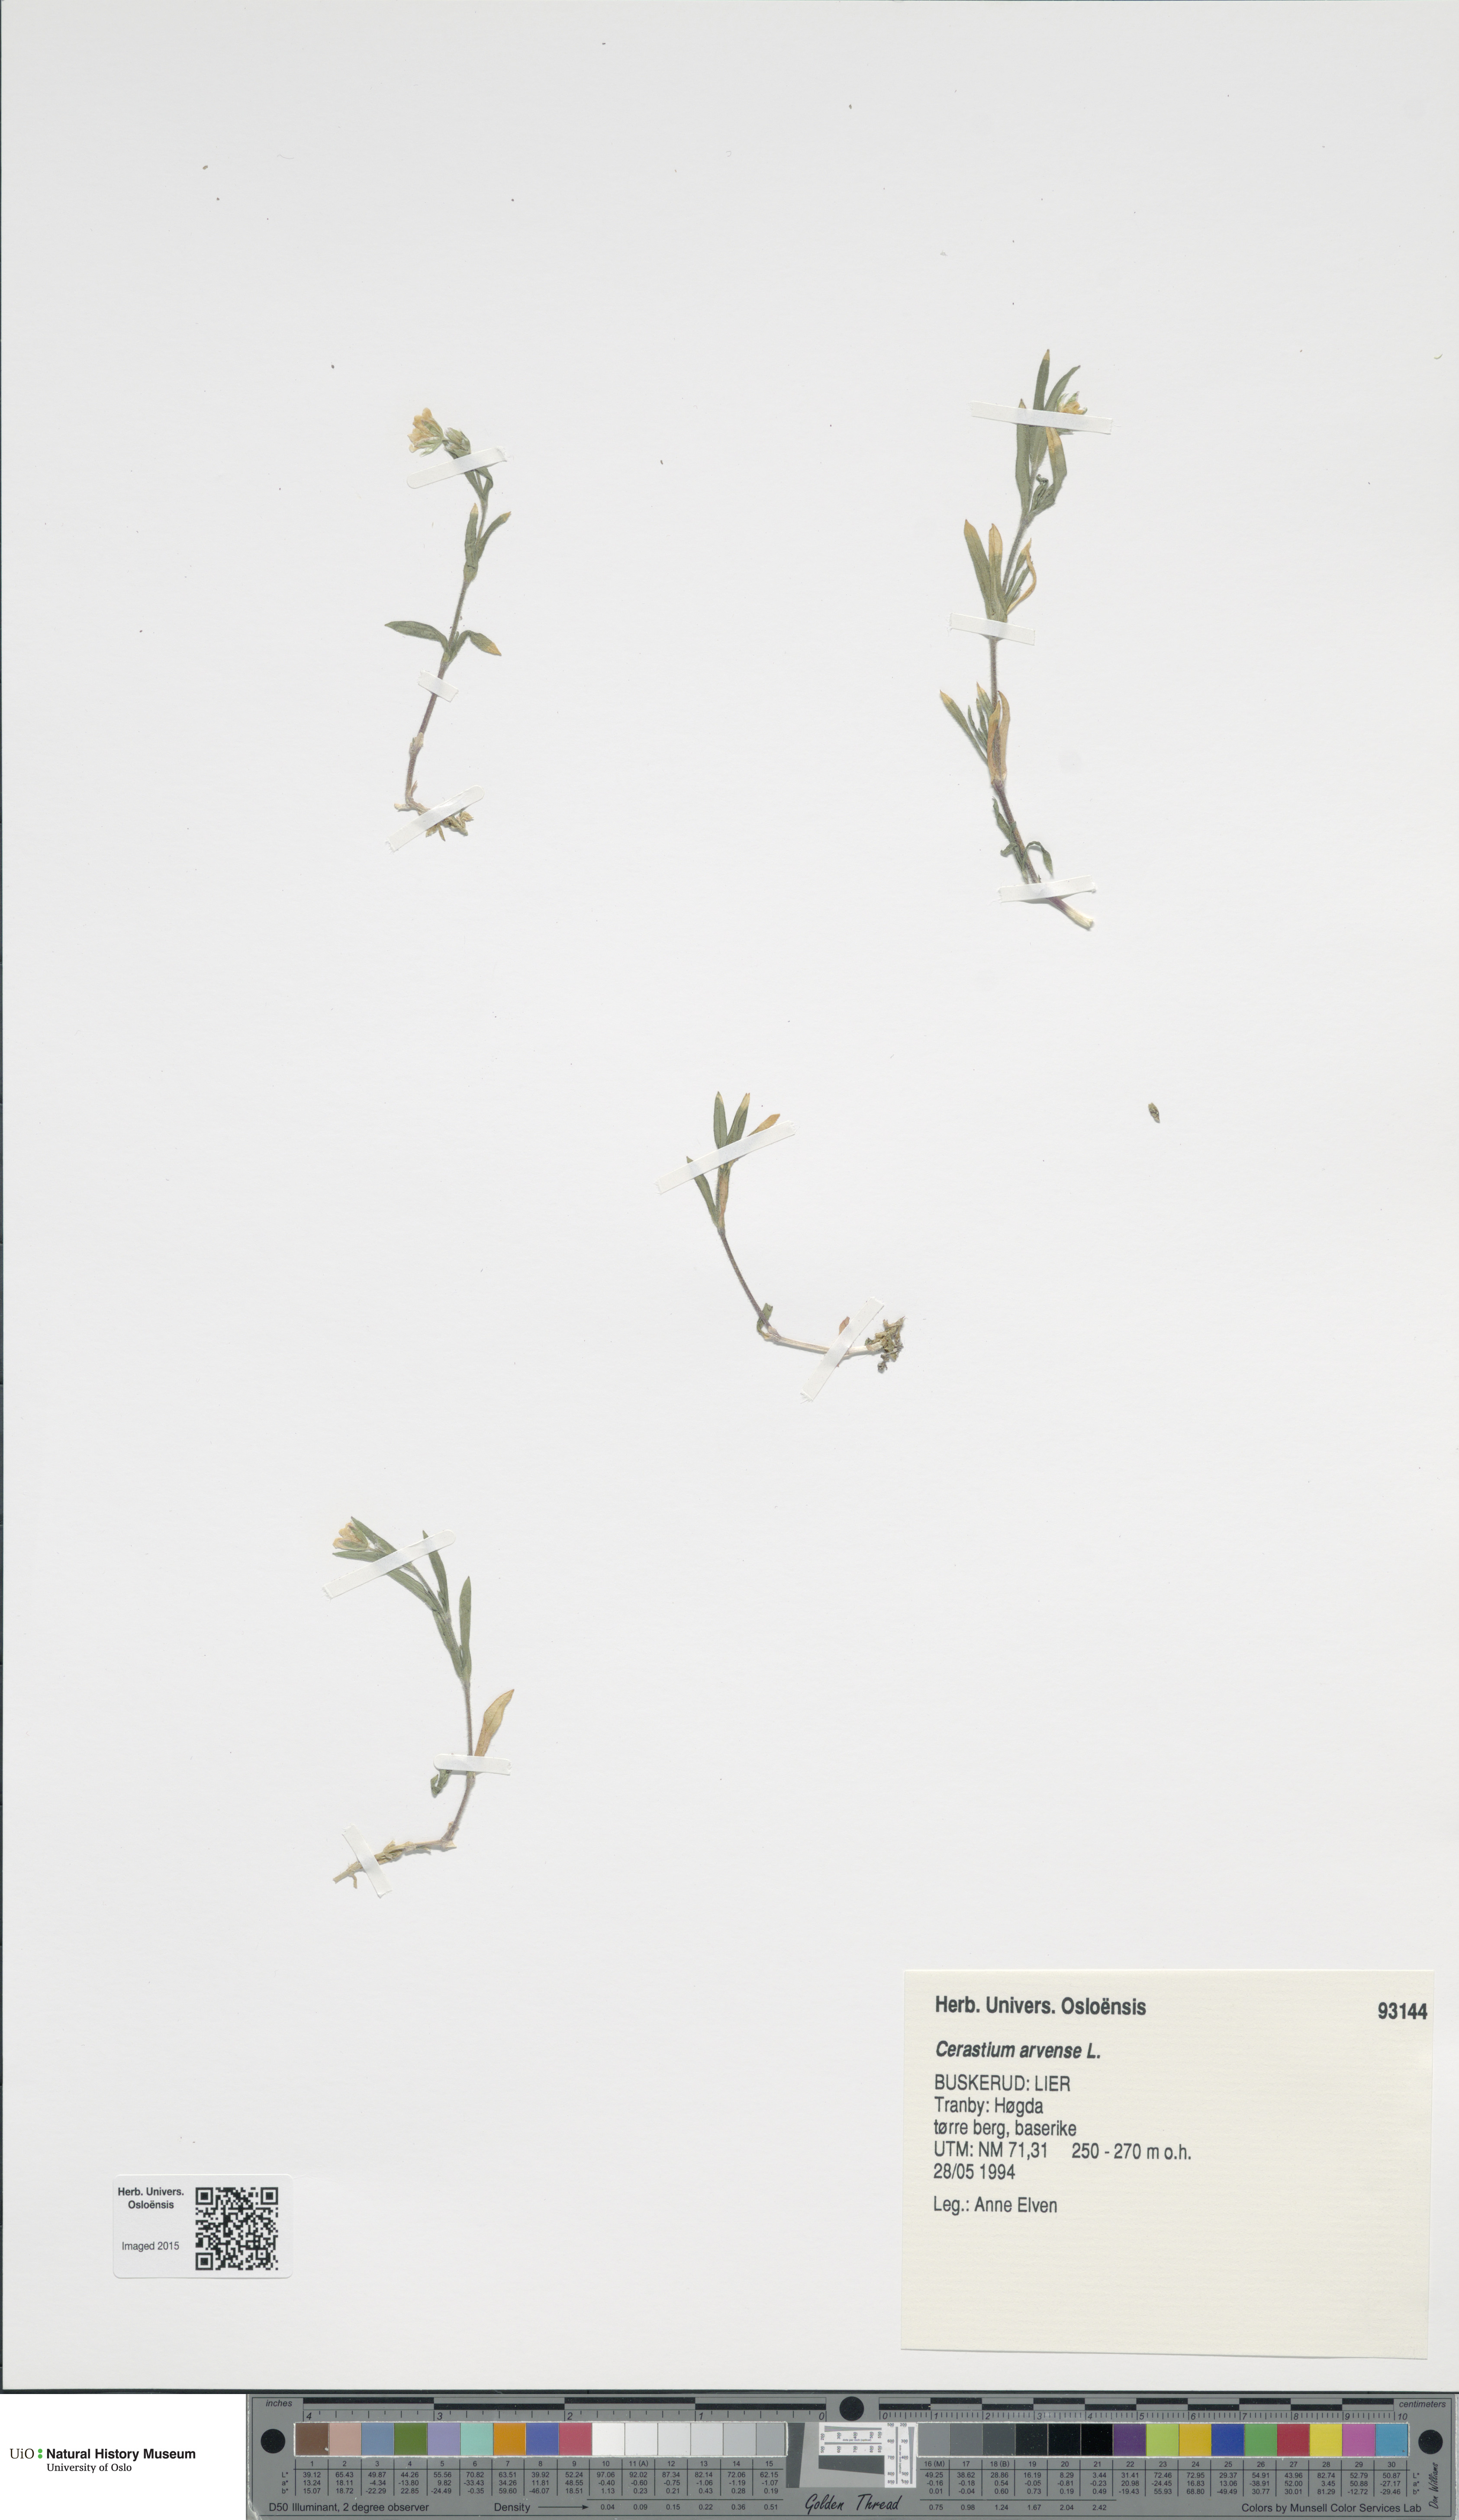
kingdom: Plantae
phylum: Tracheophyta
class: Magnoliopsida
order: Caryophyllales
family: Caryophyllaceae
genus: Cerastium
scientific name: Cerastium arvense
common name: Field mouse-ear
